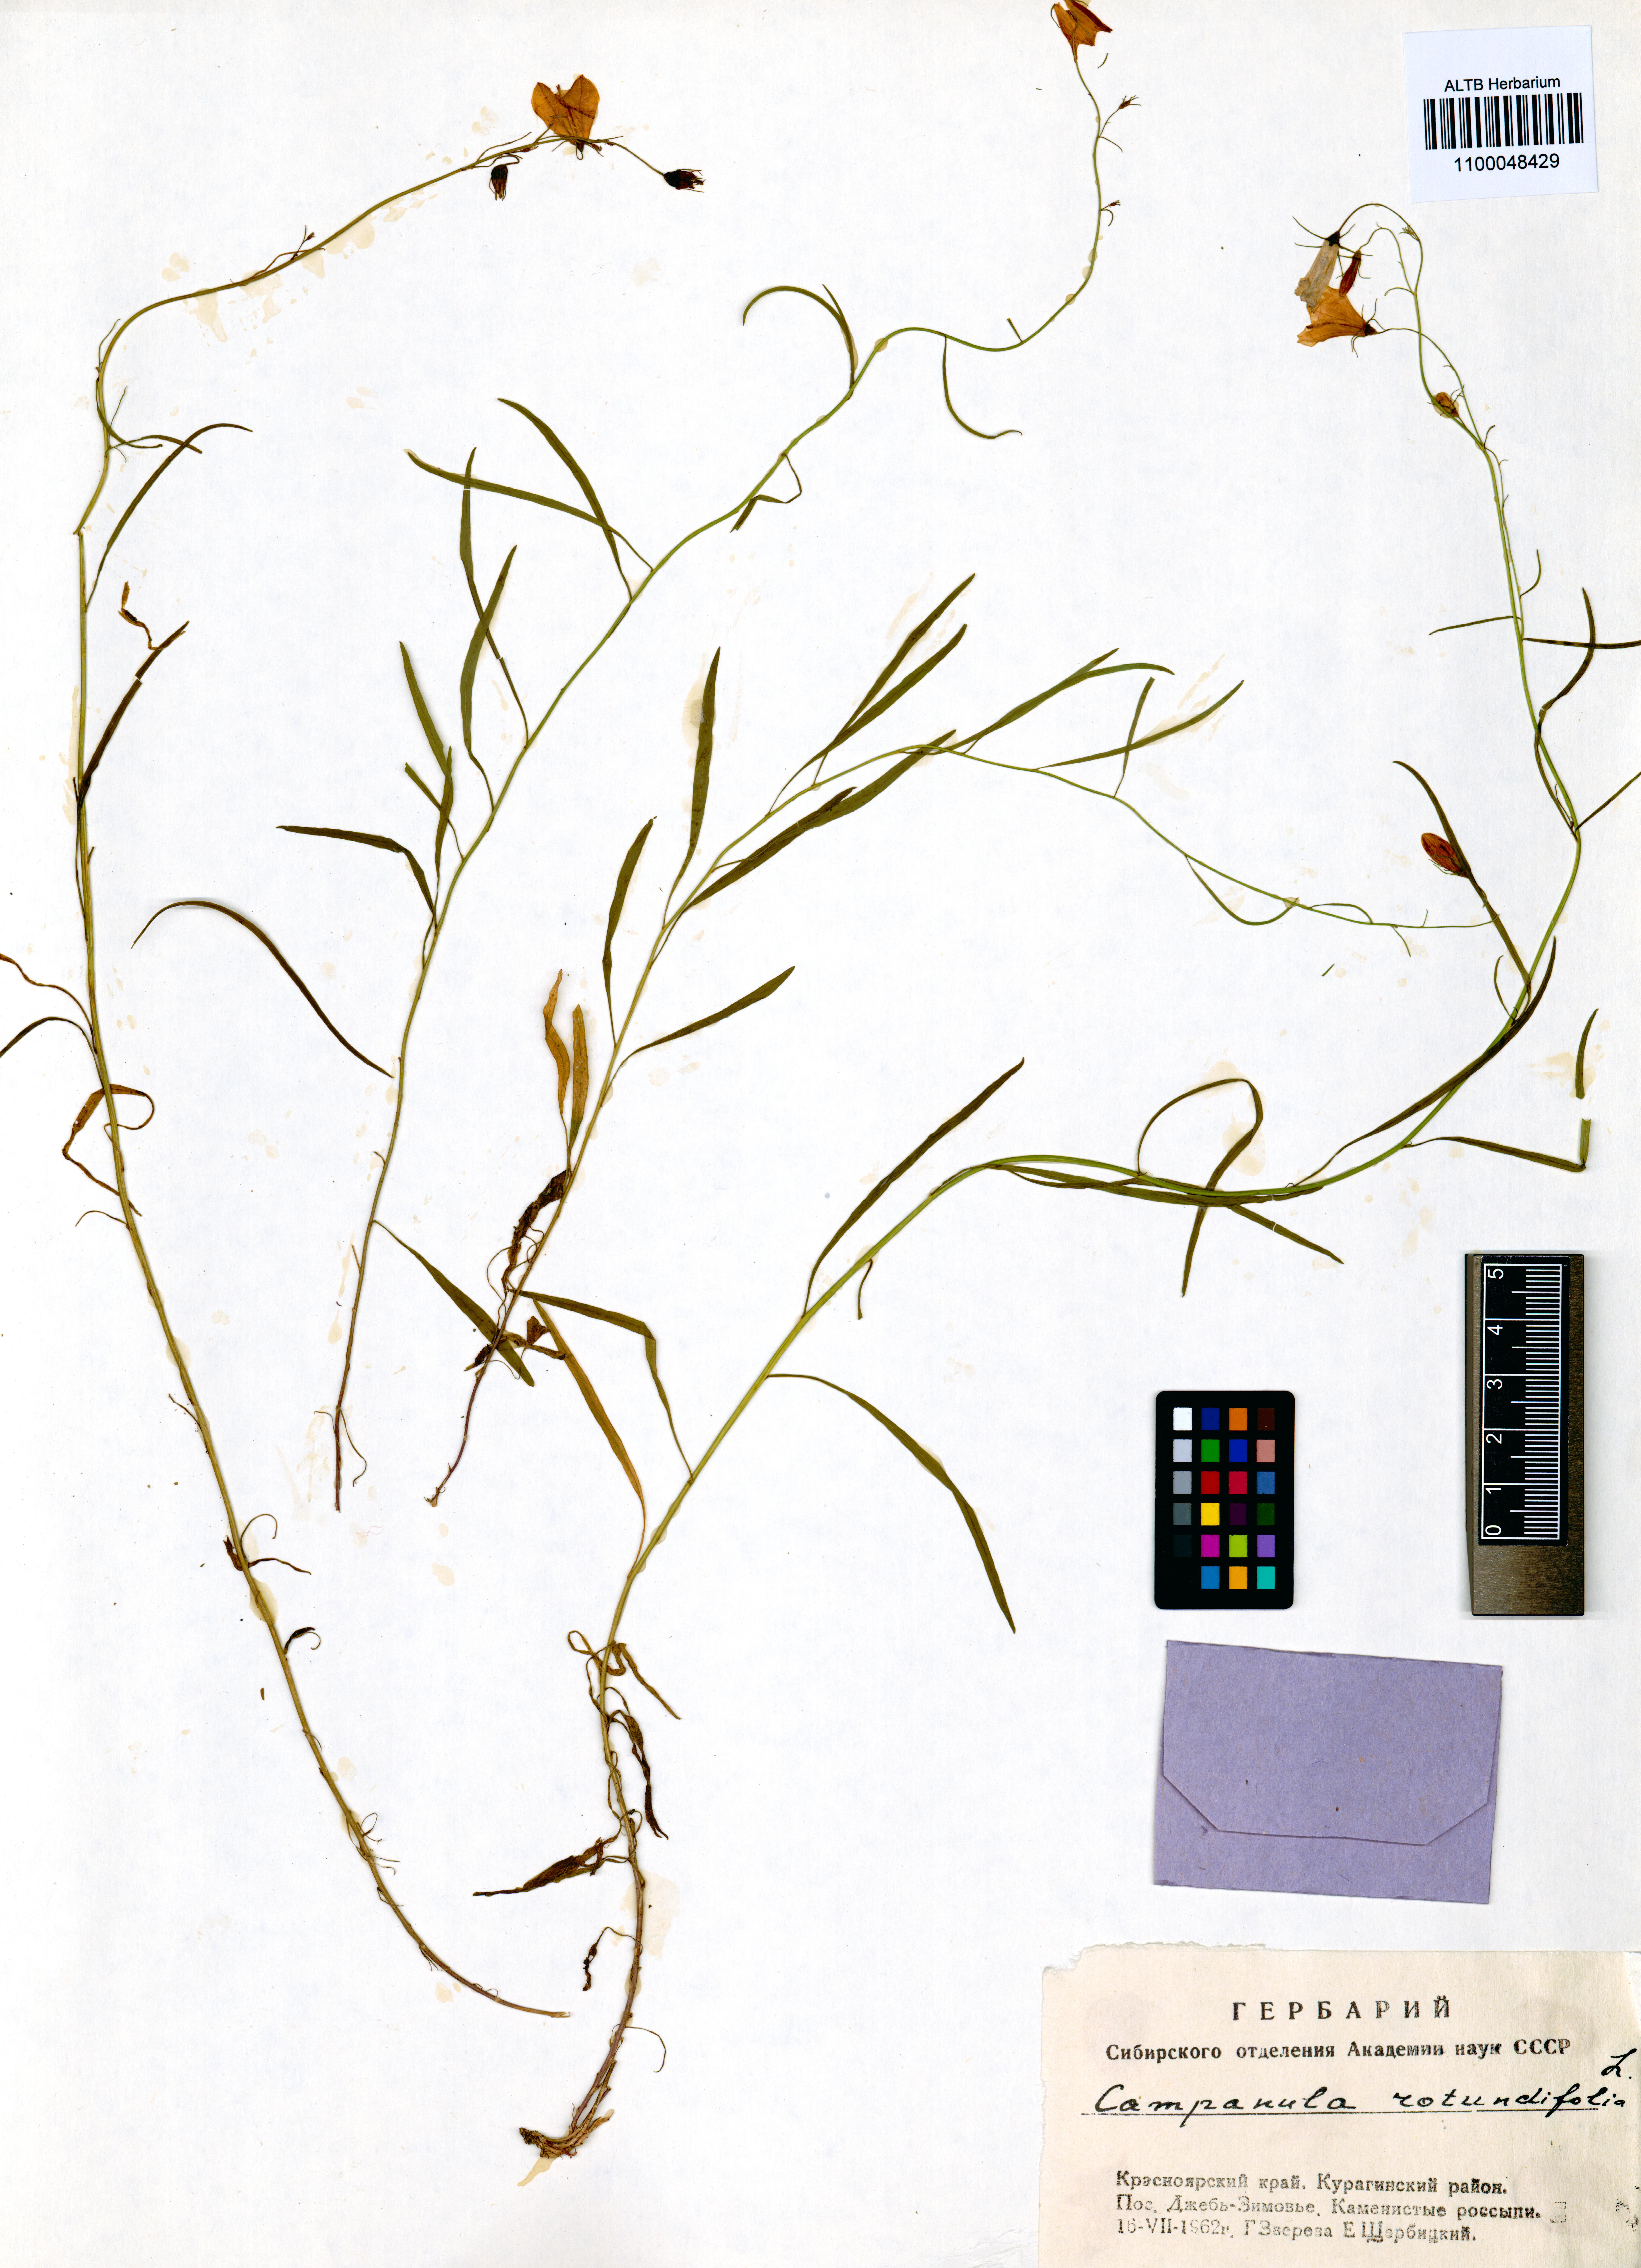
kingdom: Plantae
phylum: Tracheophyta
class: Magnoliopsida
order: Asterales
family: Campanulaceae
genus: Campanula
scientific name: Campanula rotundifolia
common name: Harebell
